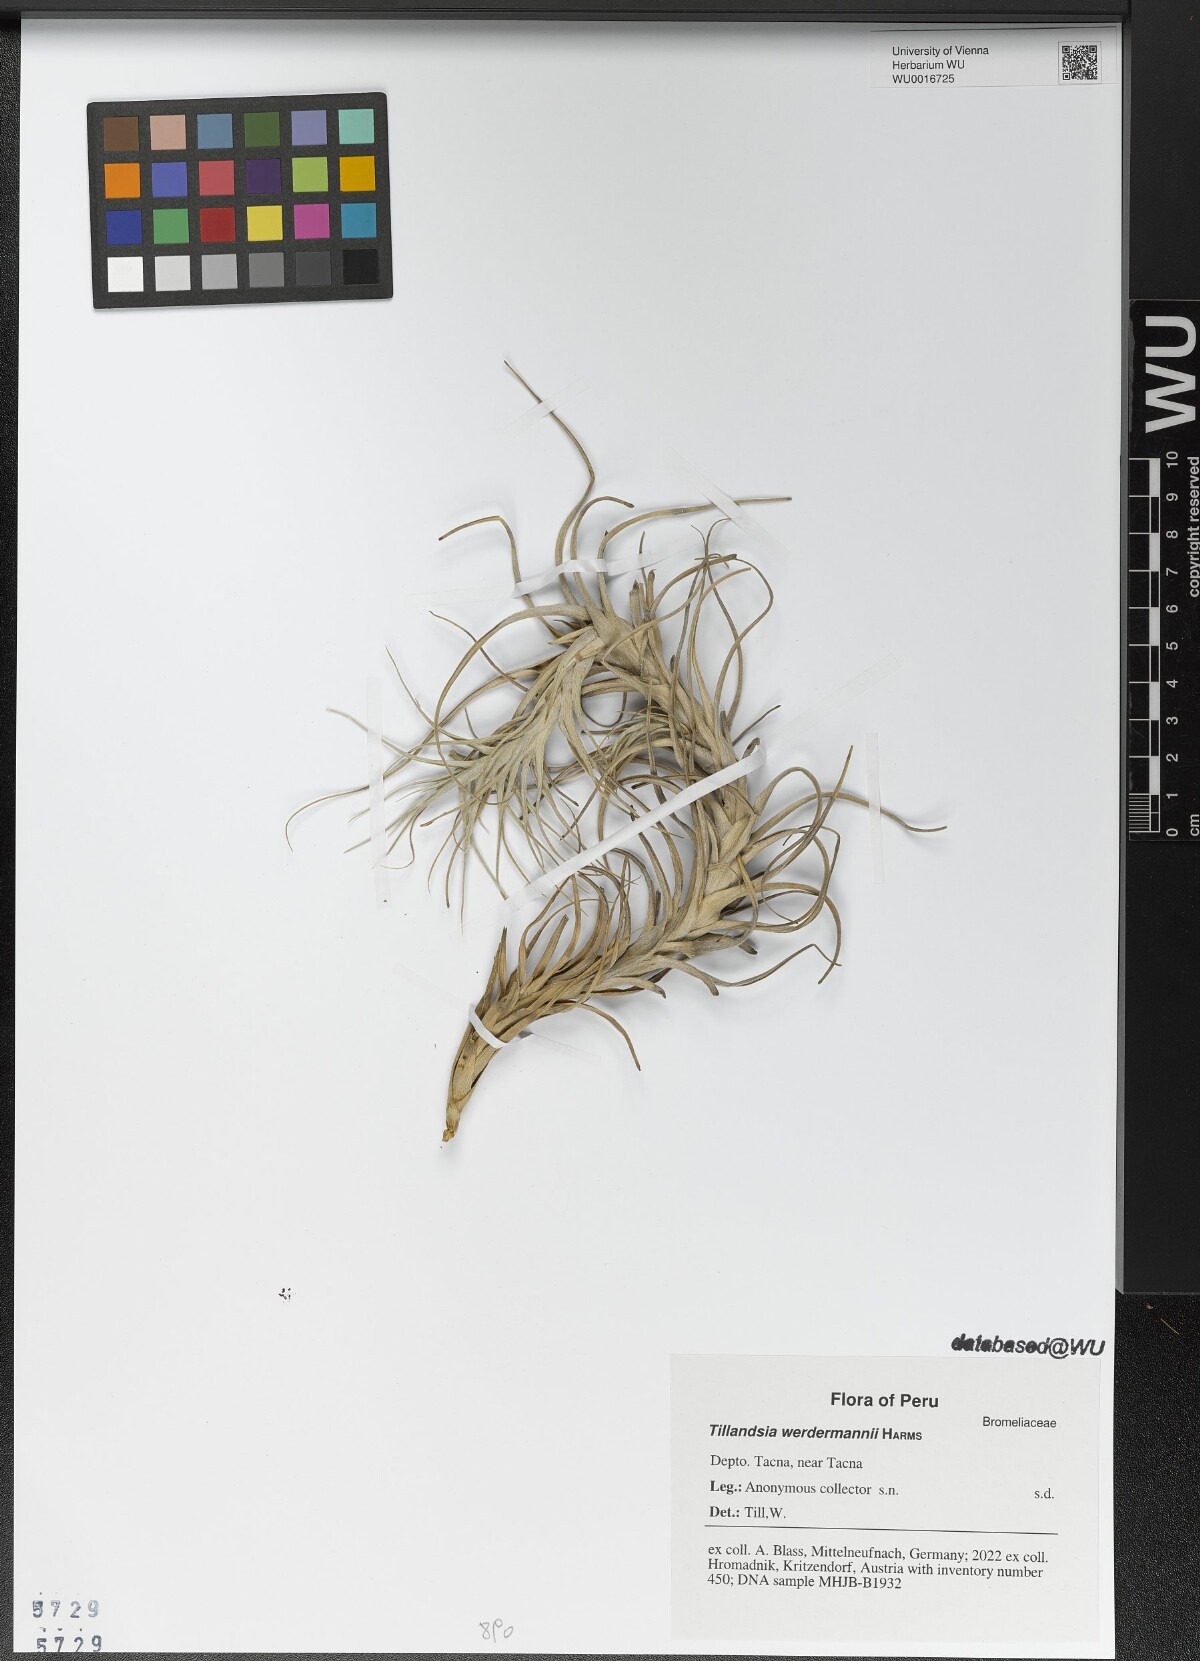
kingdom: Plantae
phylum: Tracheophyta
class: Liliopsida
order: Poales
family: Bromeliaceae
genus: Tillandsia
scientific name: Tillandsia werdermannii
